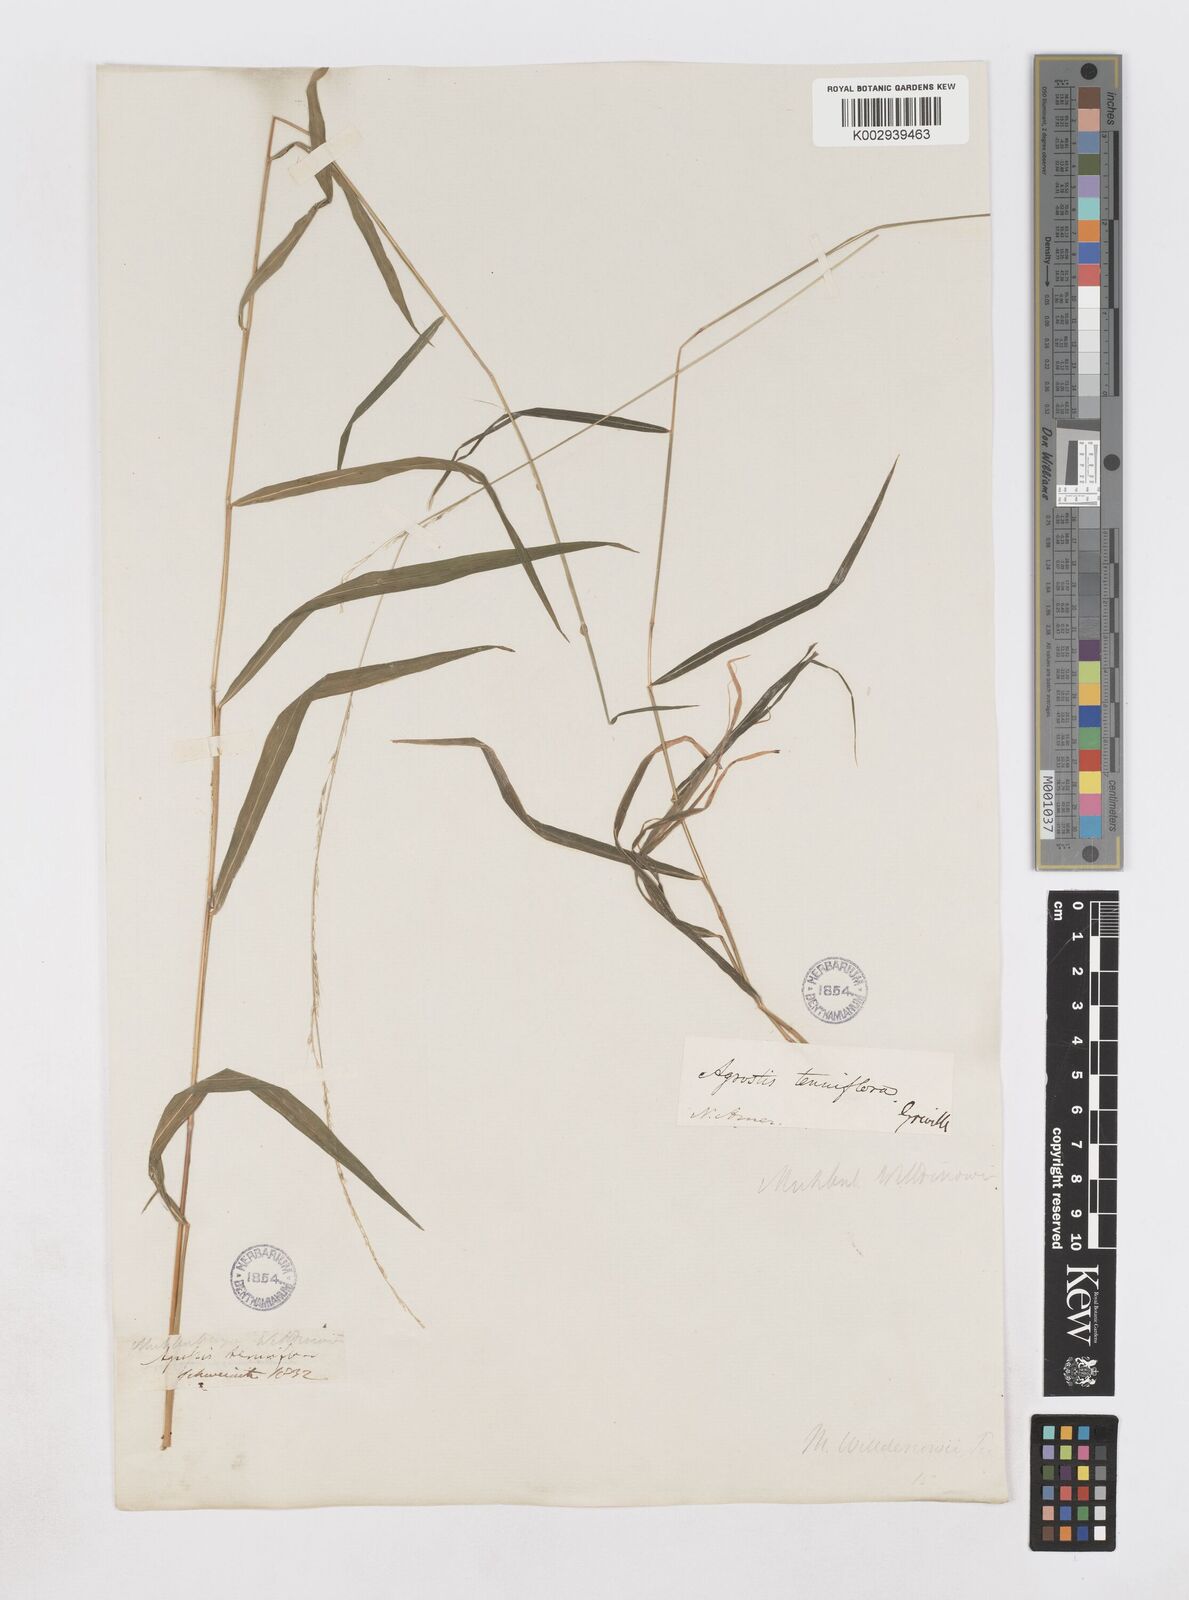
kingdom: Plantae
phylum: Tracheophyta
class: Liliopsida
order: Poales
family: Poaceae
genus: Muhlenbergia
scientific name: Muhlenbergia tenuiflora
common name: Slender muhly
